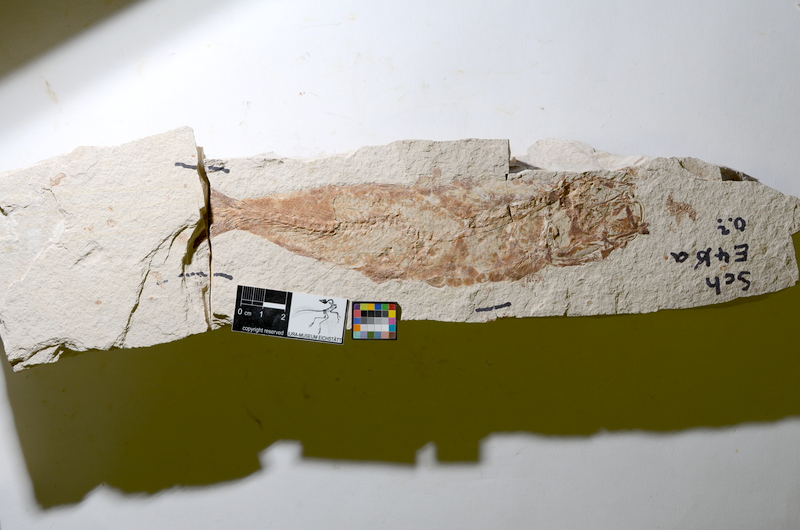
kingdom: Animalia
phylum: Chordata
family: Ascalaboidae
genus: Tharsis
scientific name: Tharsis dubius
